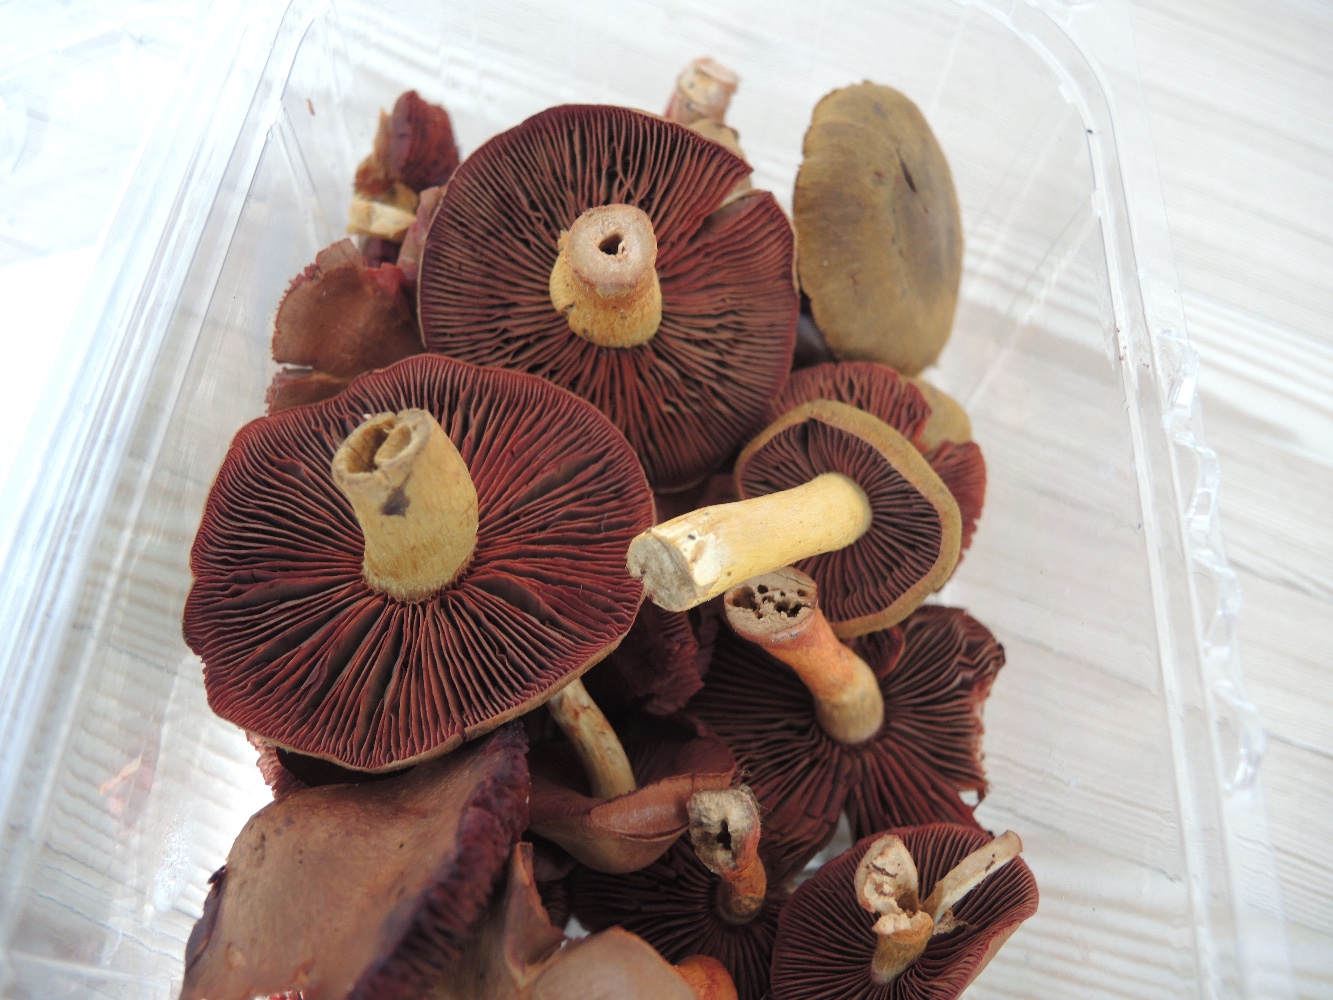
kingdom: Fungi
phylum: Basidiomycota
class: Agaricomycetes
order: Agaricales
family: Cortinariaceae
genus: Cortinarius
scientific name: Cortinarius
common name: cinnoberbladet slørhat
